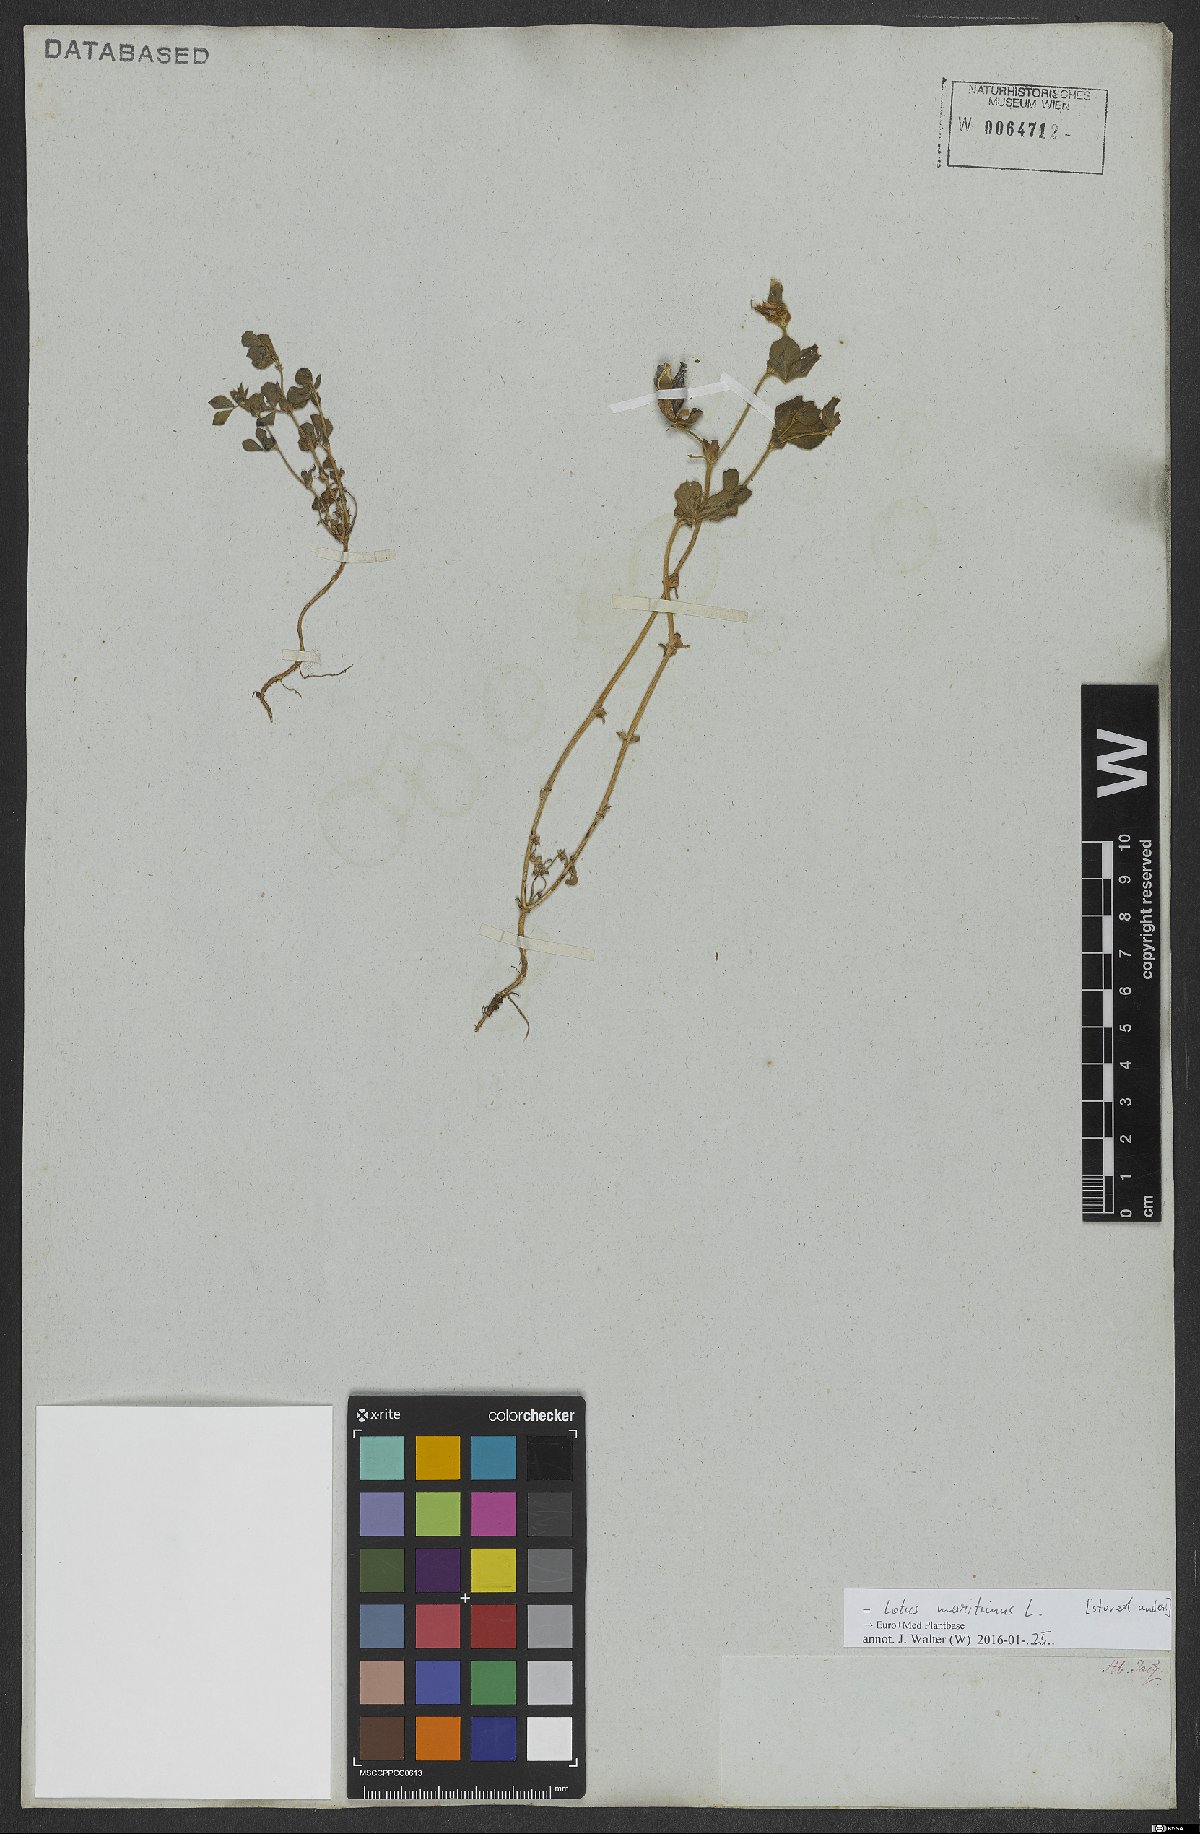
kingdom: Plantae
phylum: Tracheophyta
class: Magnoliopsida
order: Fabales
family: Fabaceae
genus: Lotus
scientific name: Lotus maritimus
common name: Dragon's-teeth
